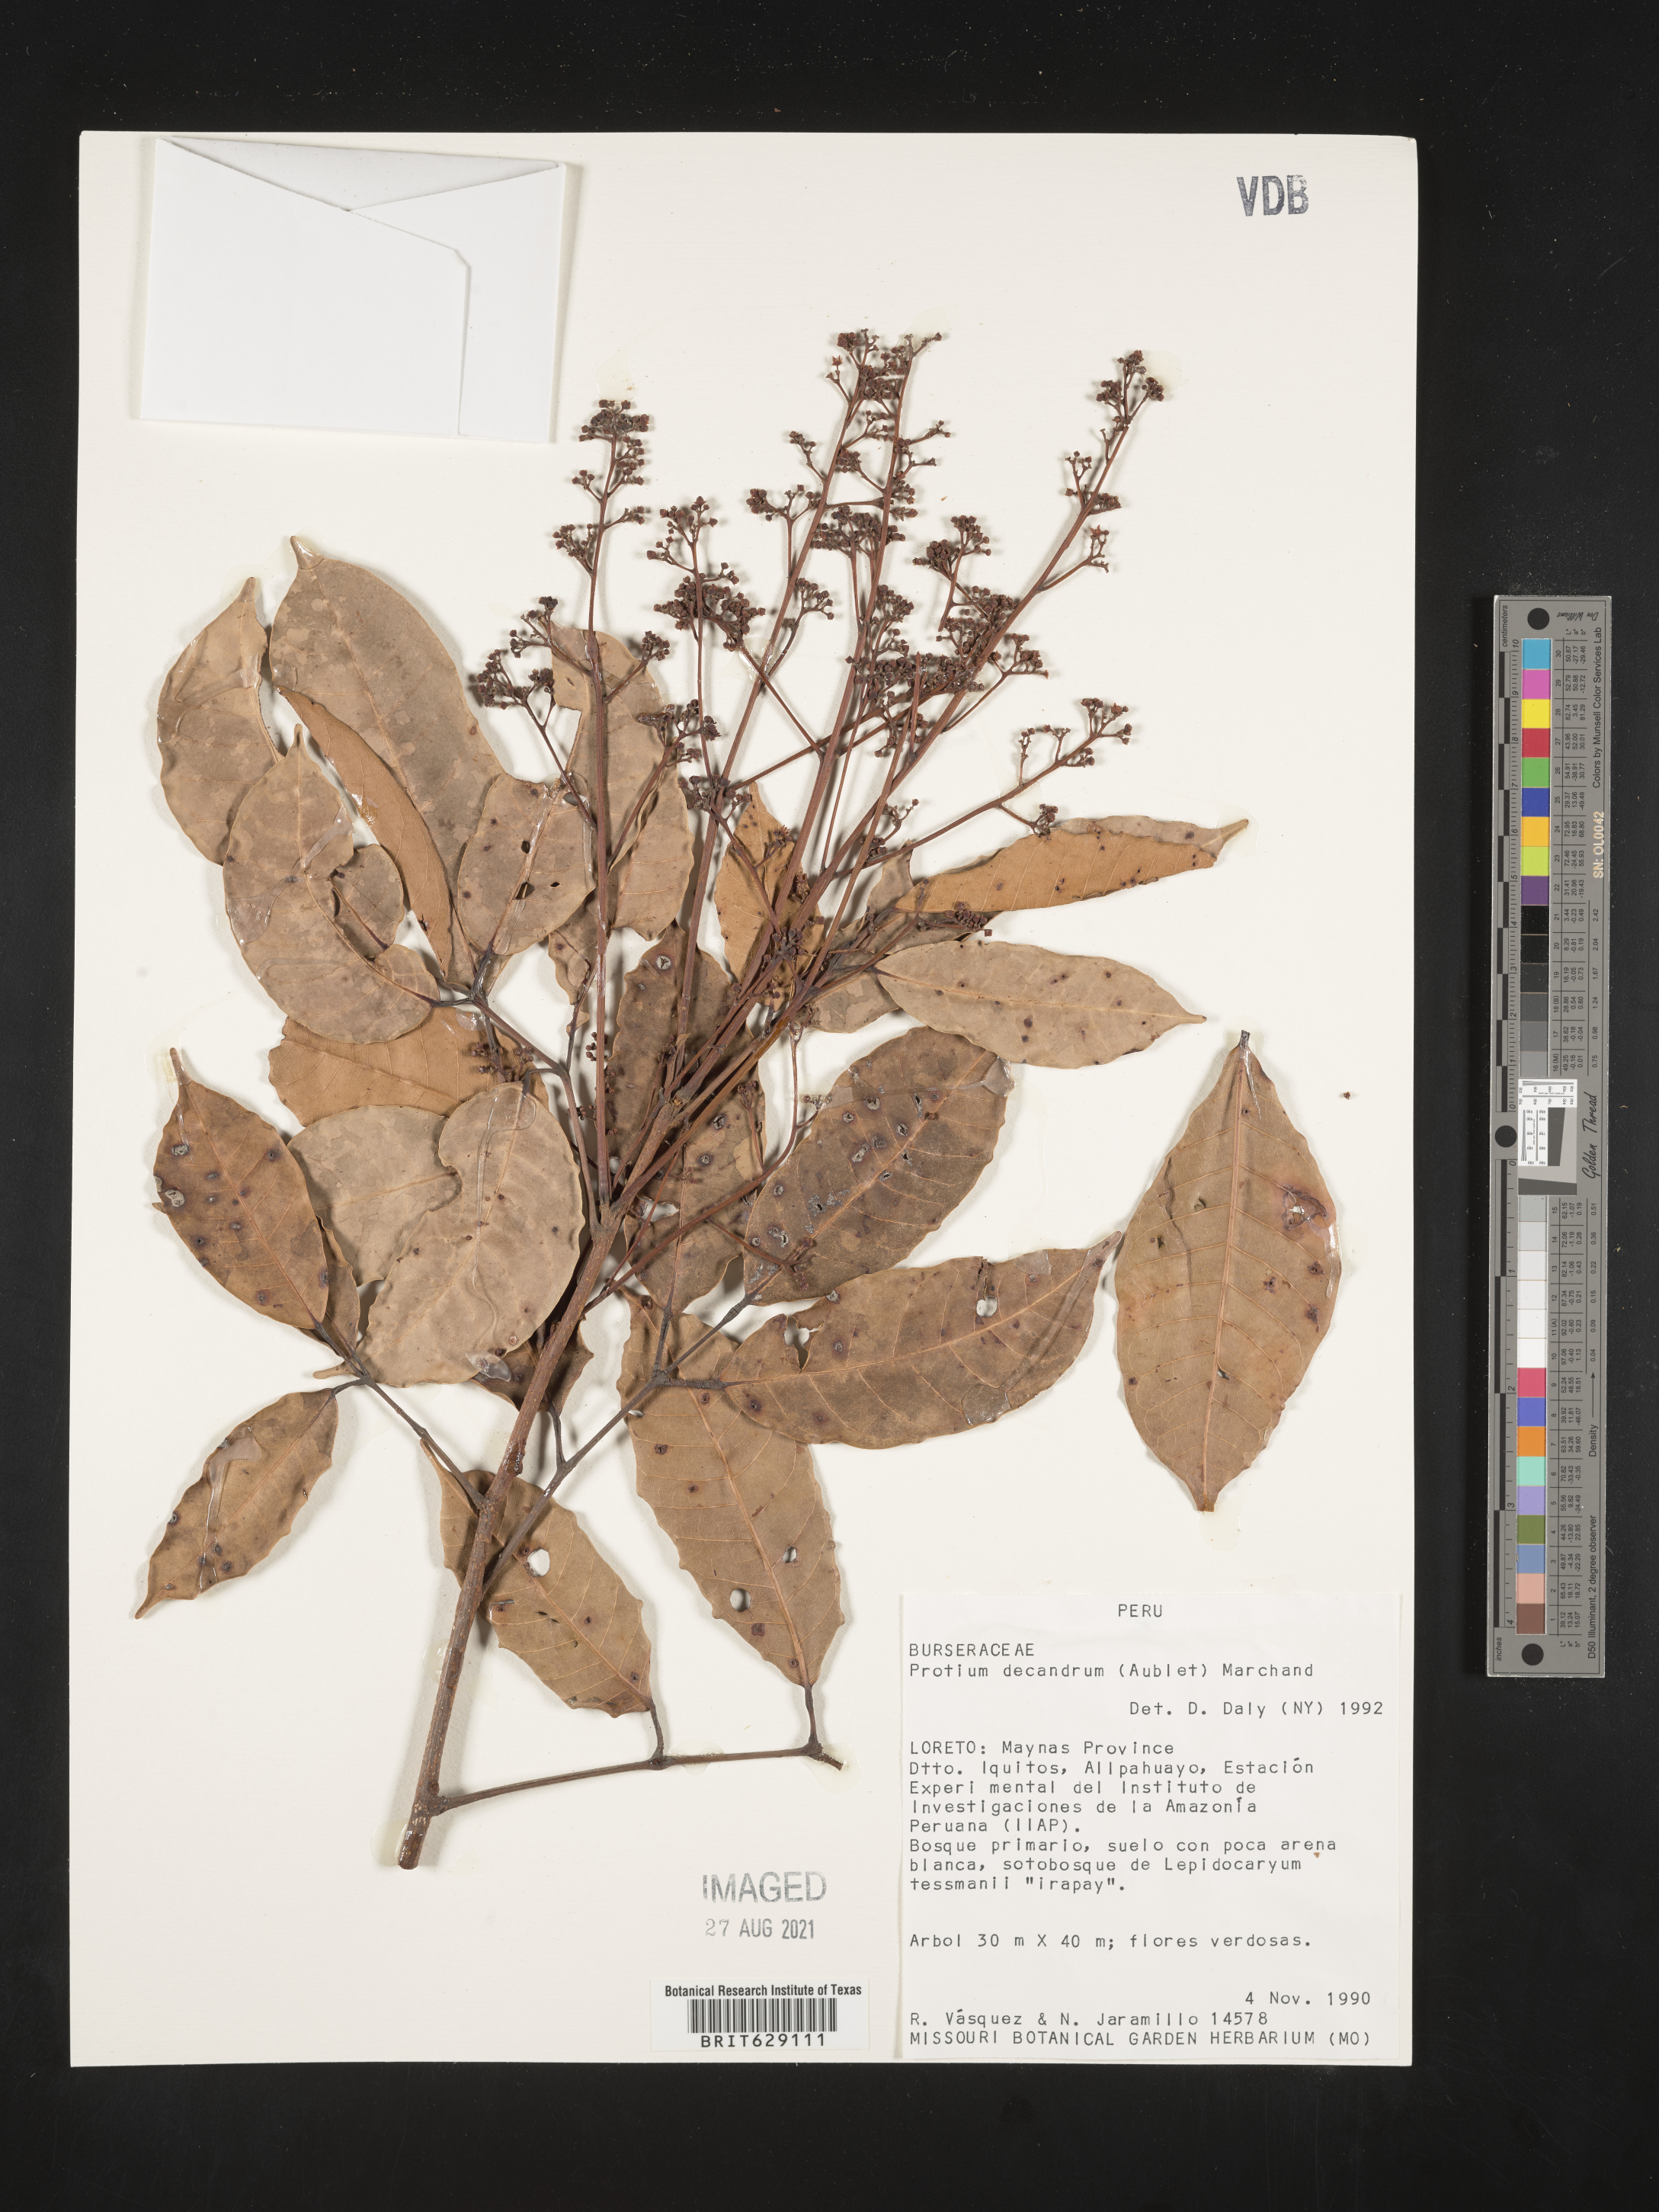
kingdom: Plantae
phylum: Tracheophyta
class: Magnoliopsida
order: Sapindales
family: Burseraceae
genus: Protium
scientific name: Protium decandrum
